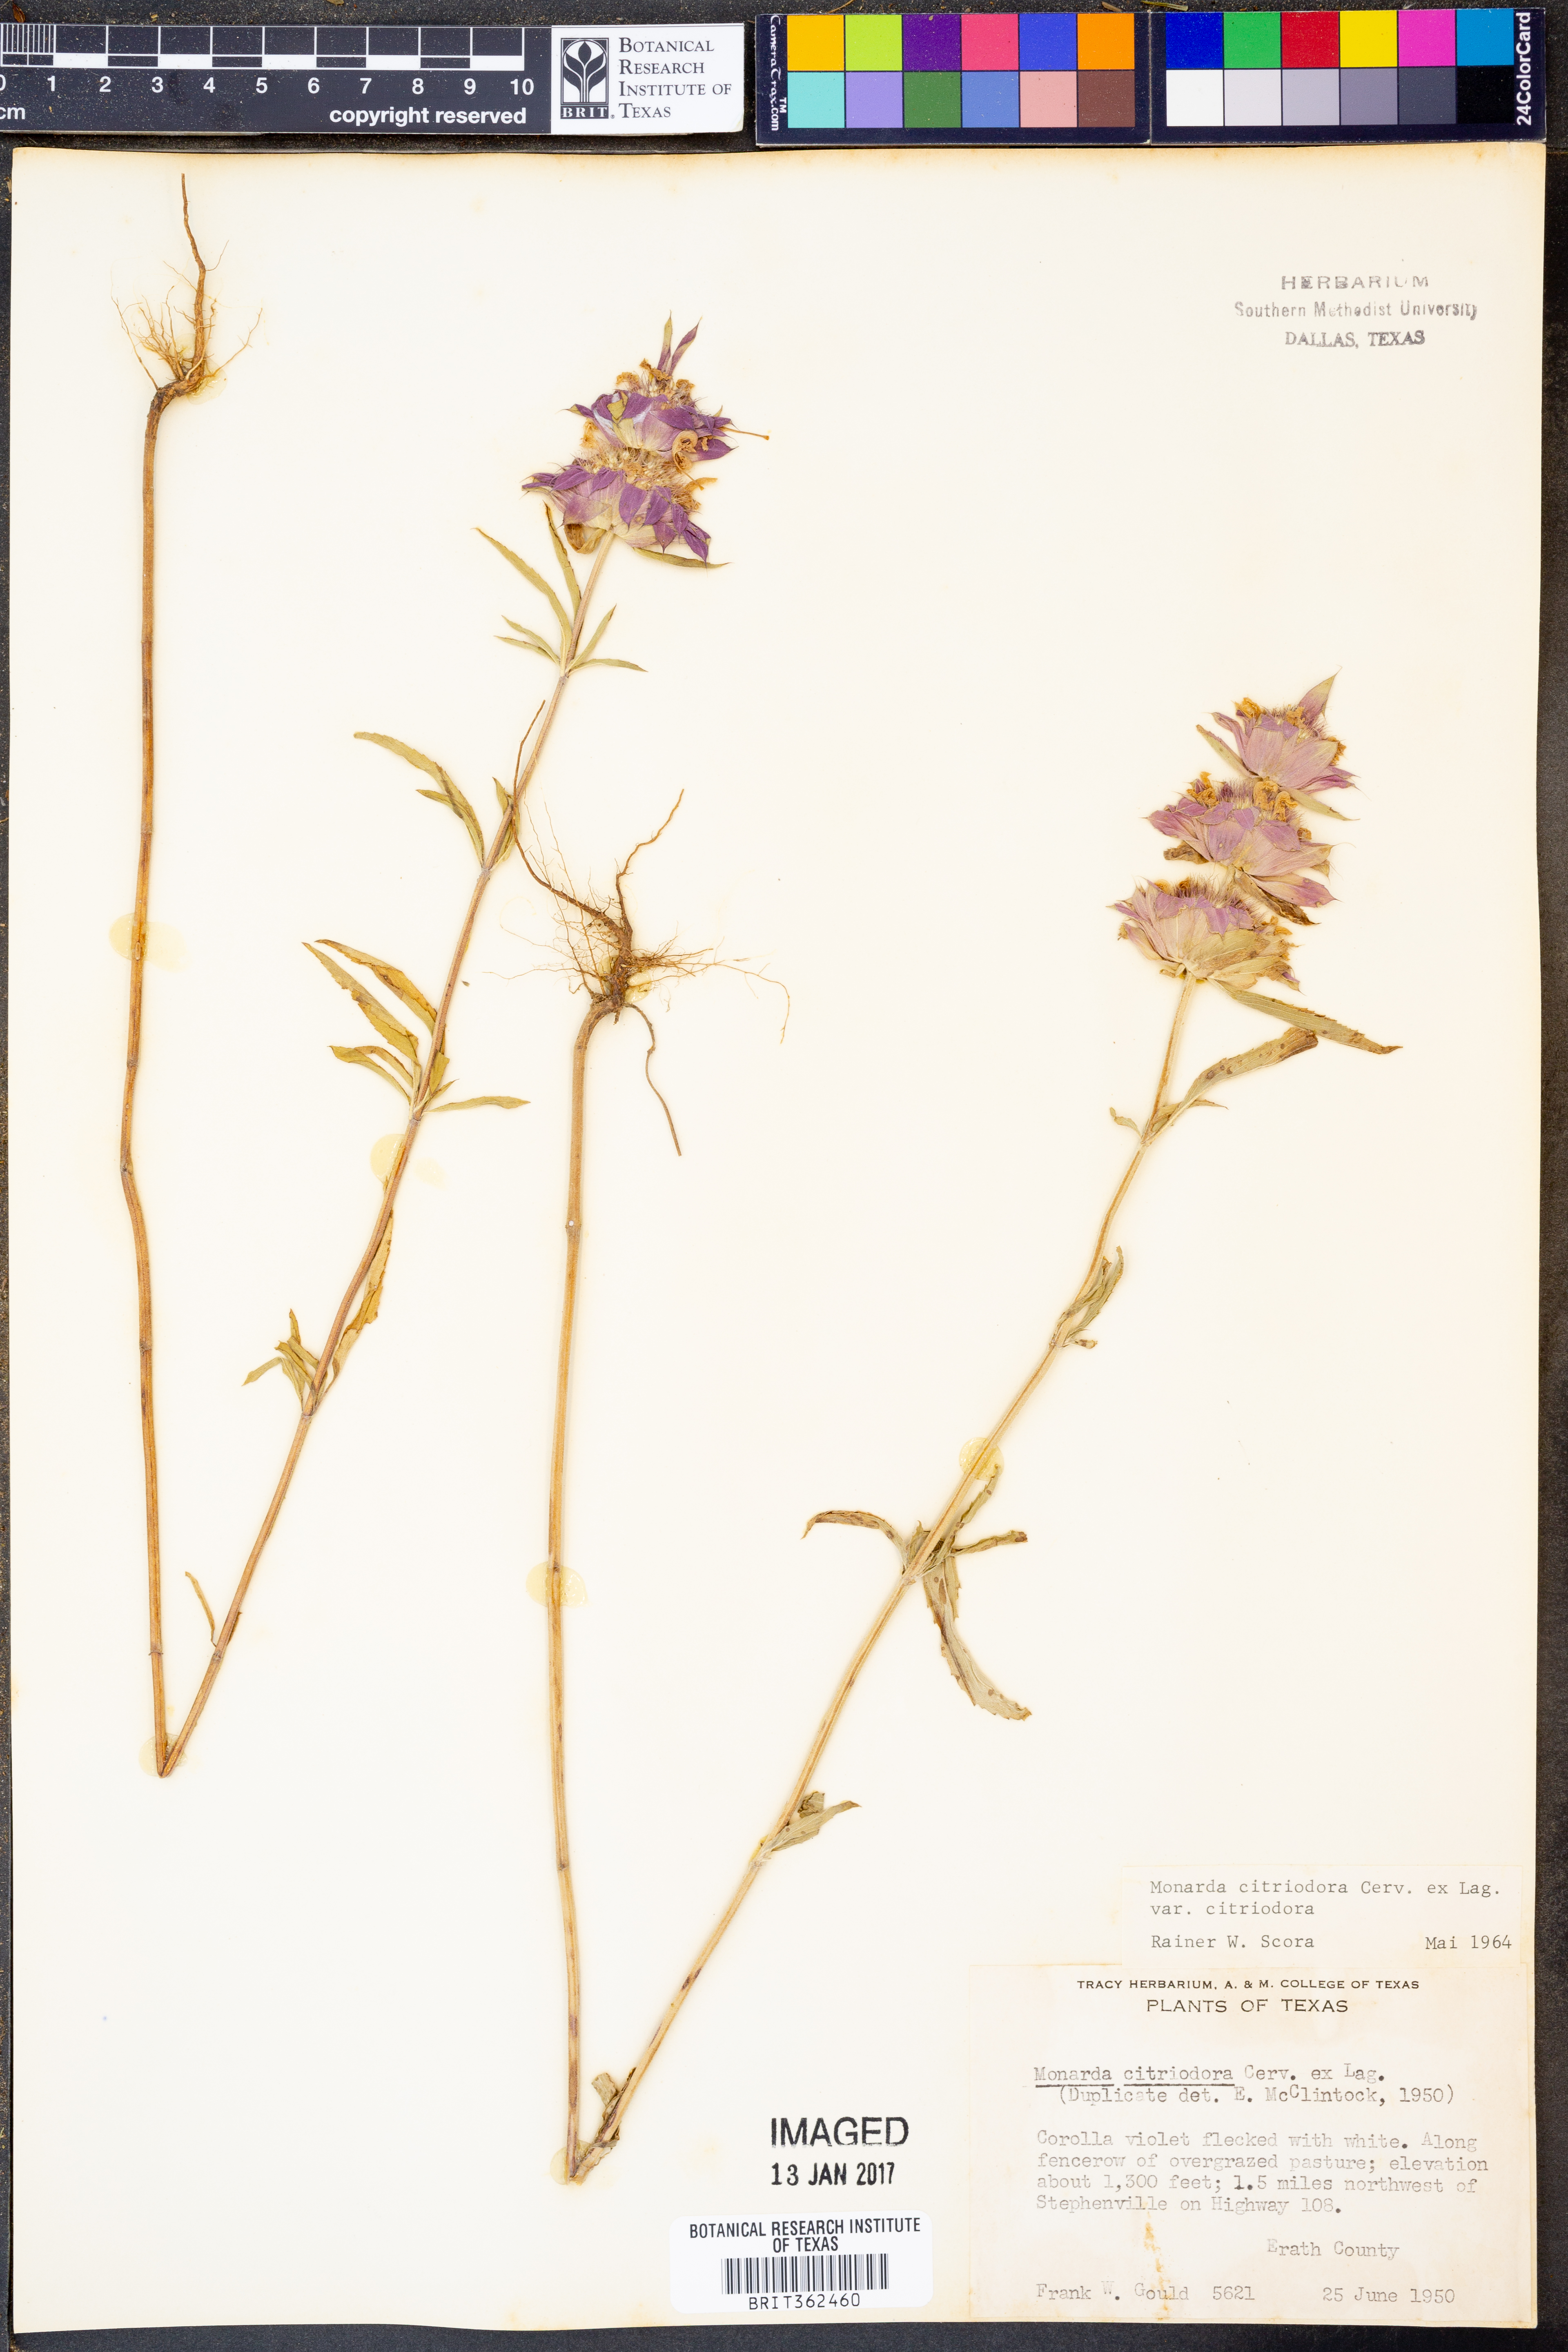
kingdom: Plantae
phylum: Tracheophyta
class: Magnoliopsida
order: Lamiales
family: Lamiaceae
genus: Monarda
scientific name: Monarda citriodora
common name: Lemon beebalm
